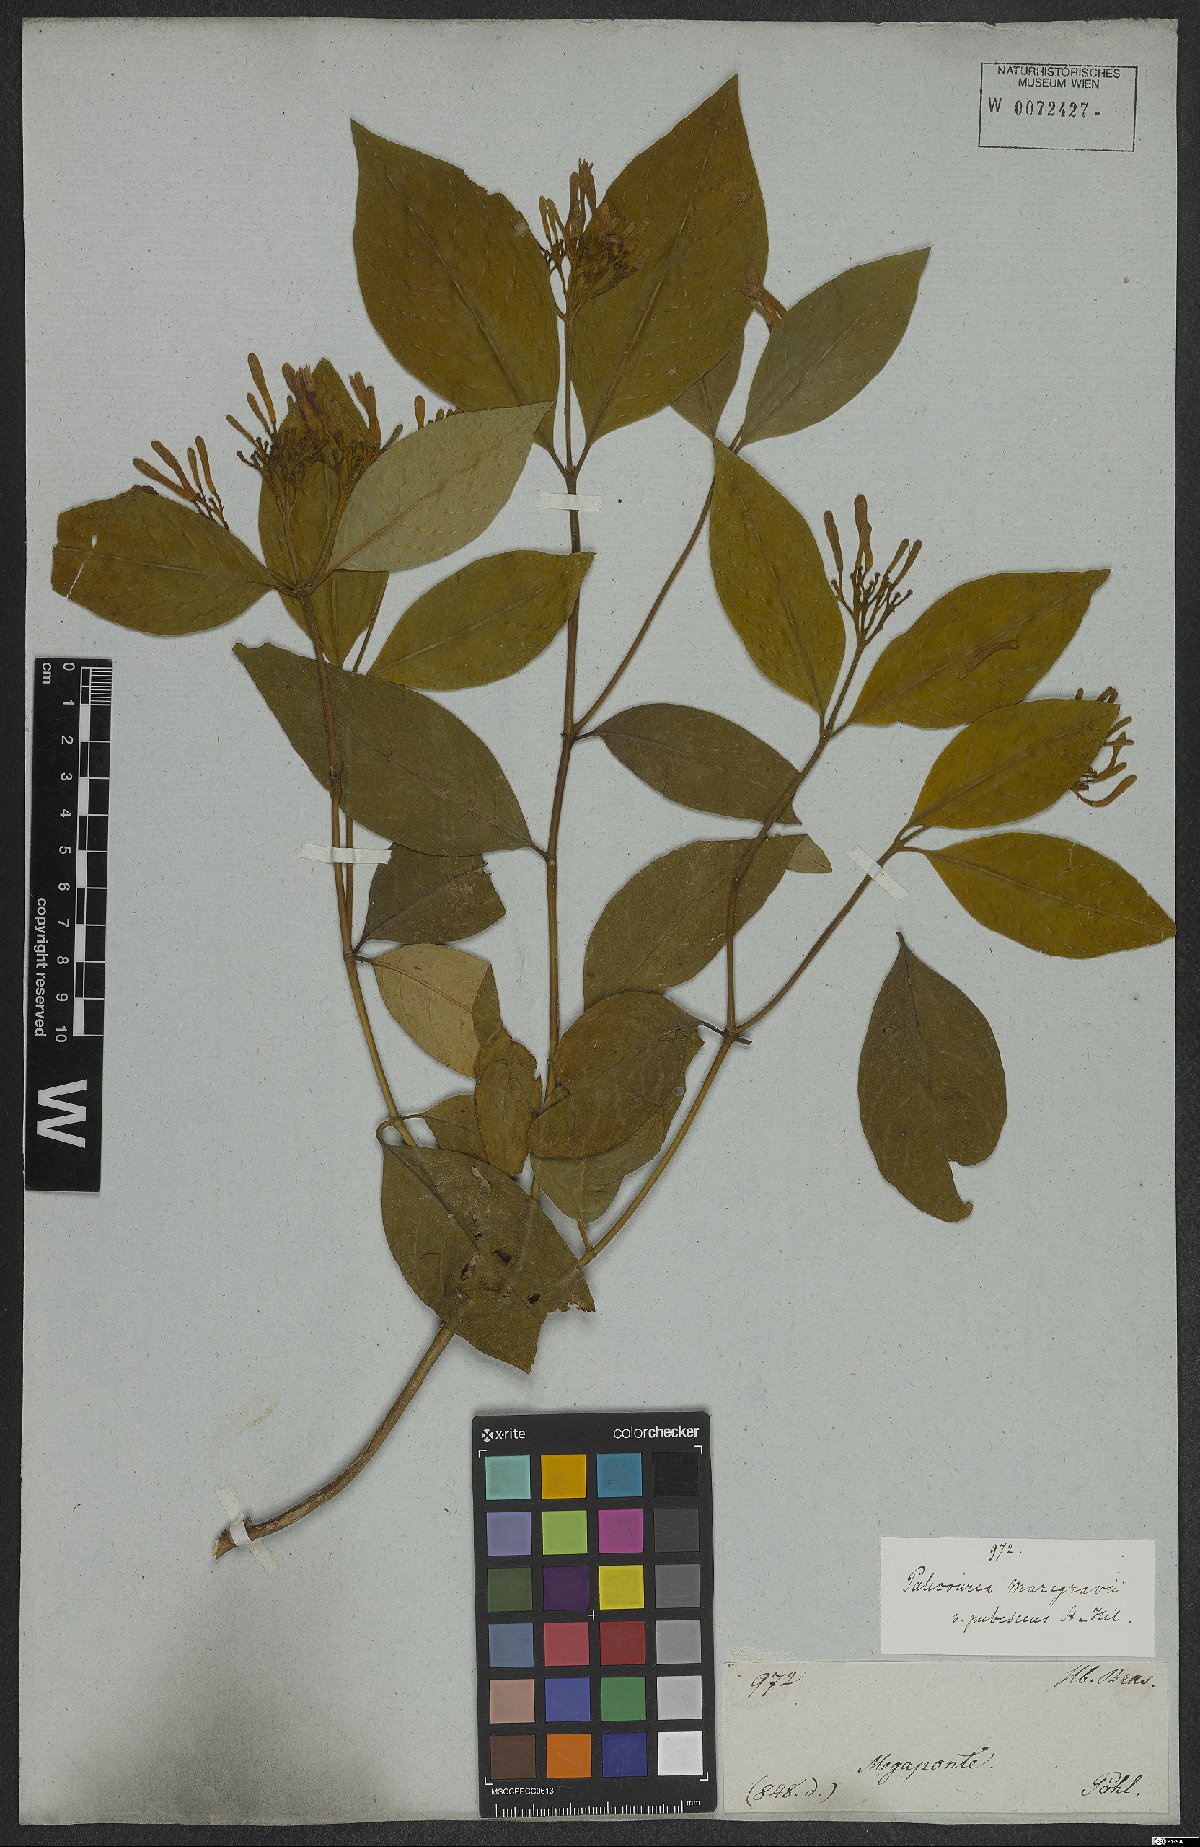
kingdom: Plantae
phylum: Tracheophyta
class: Magnoliopsida
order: Gentianales
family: Rubiaceae
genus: Palicourea
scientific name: Palicourea marcgravii
